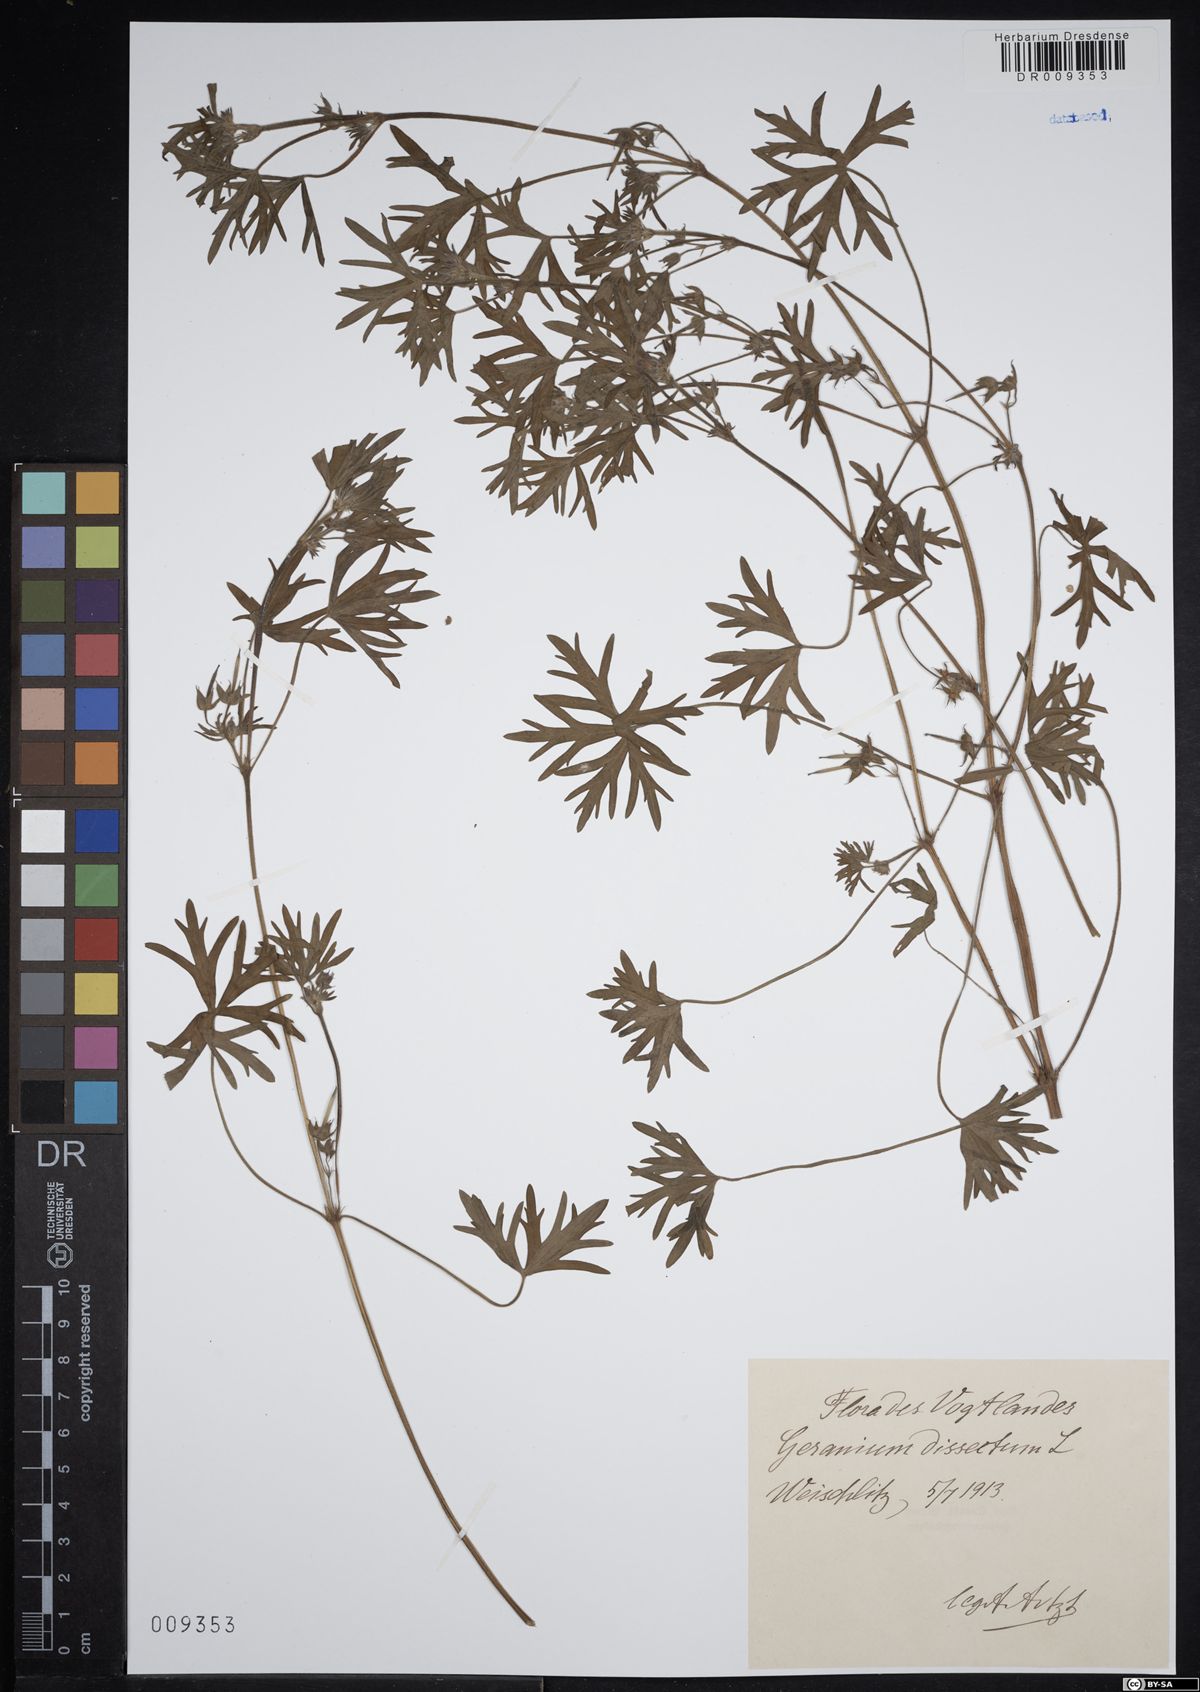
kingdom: Plantae
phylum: Tracheophyta
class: Magnoliopsida
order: Geraniales
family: Geraniaceae
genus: Geranium
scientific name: Geranium dissectum
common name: Cut-leaved crane's-bill
